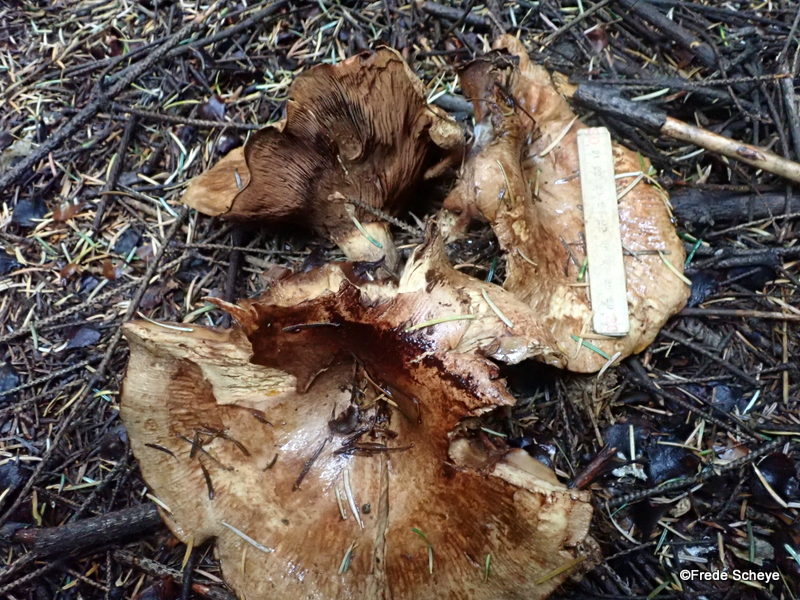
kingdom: Fungi
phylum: Basidiomycota
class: Agaricomycetes
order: Boletales
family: Paxillaceae
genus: Paxillus
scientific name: Paxillus involutus
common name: almindelig netbladhat
